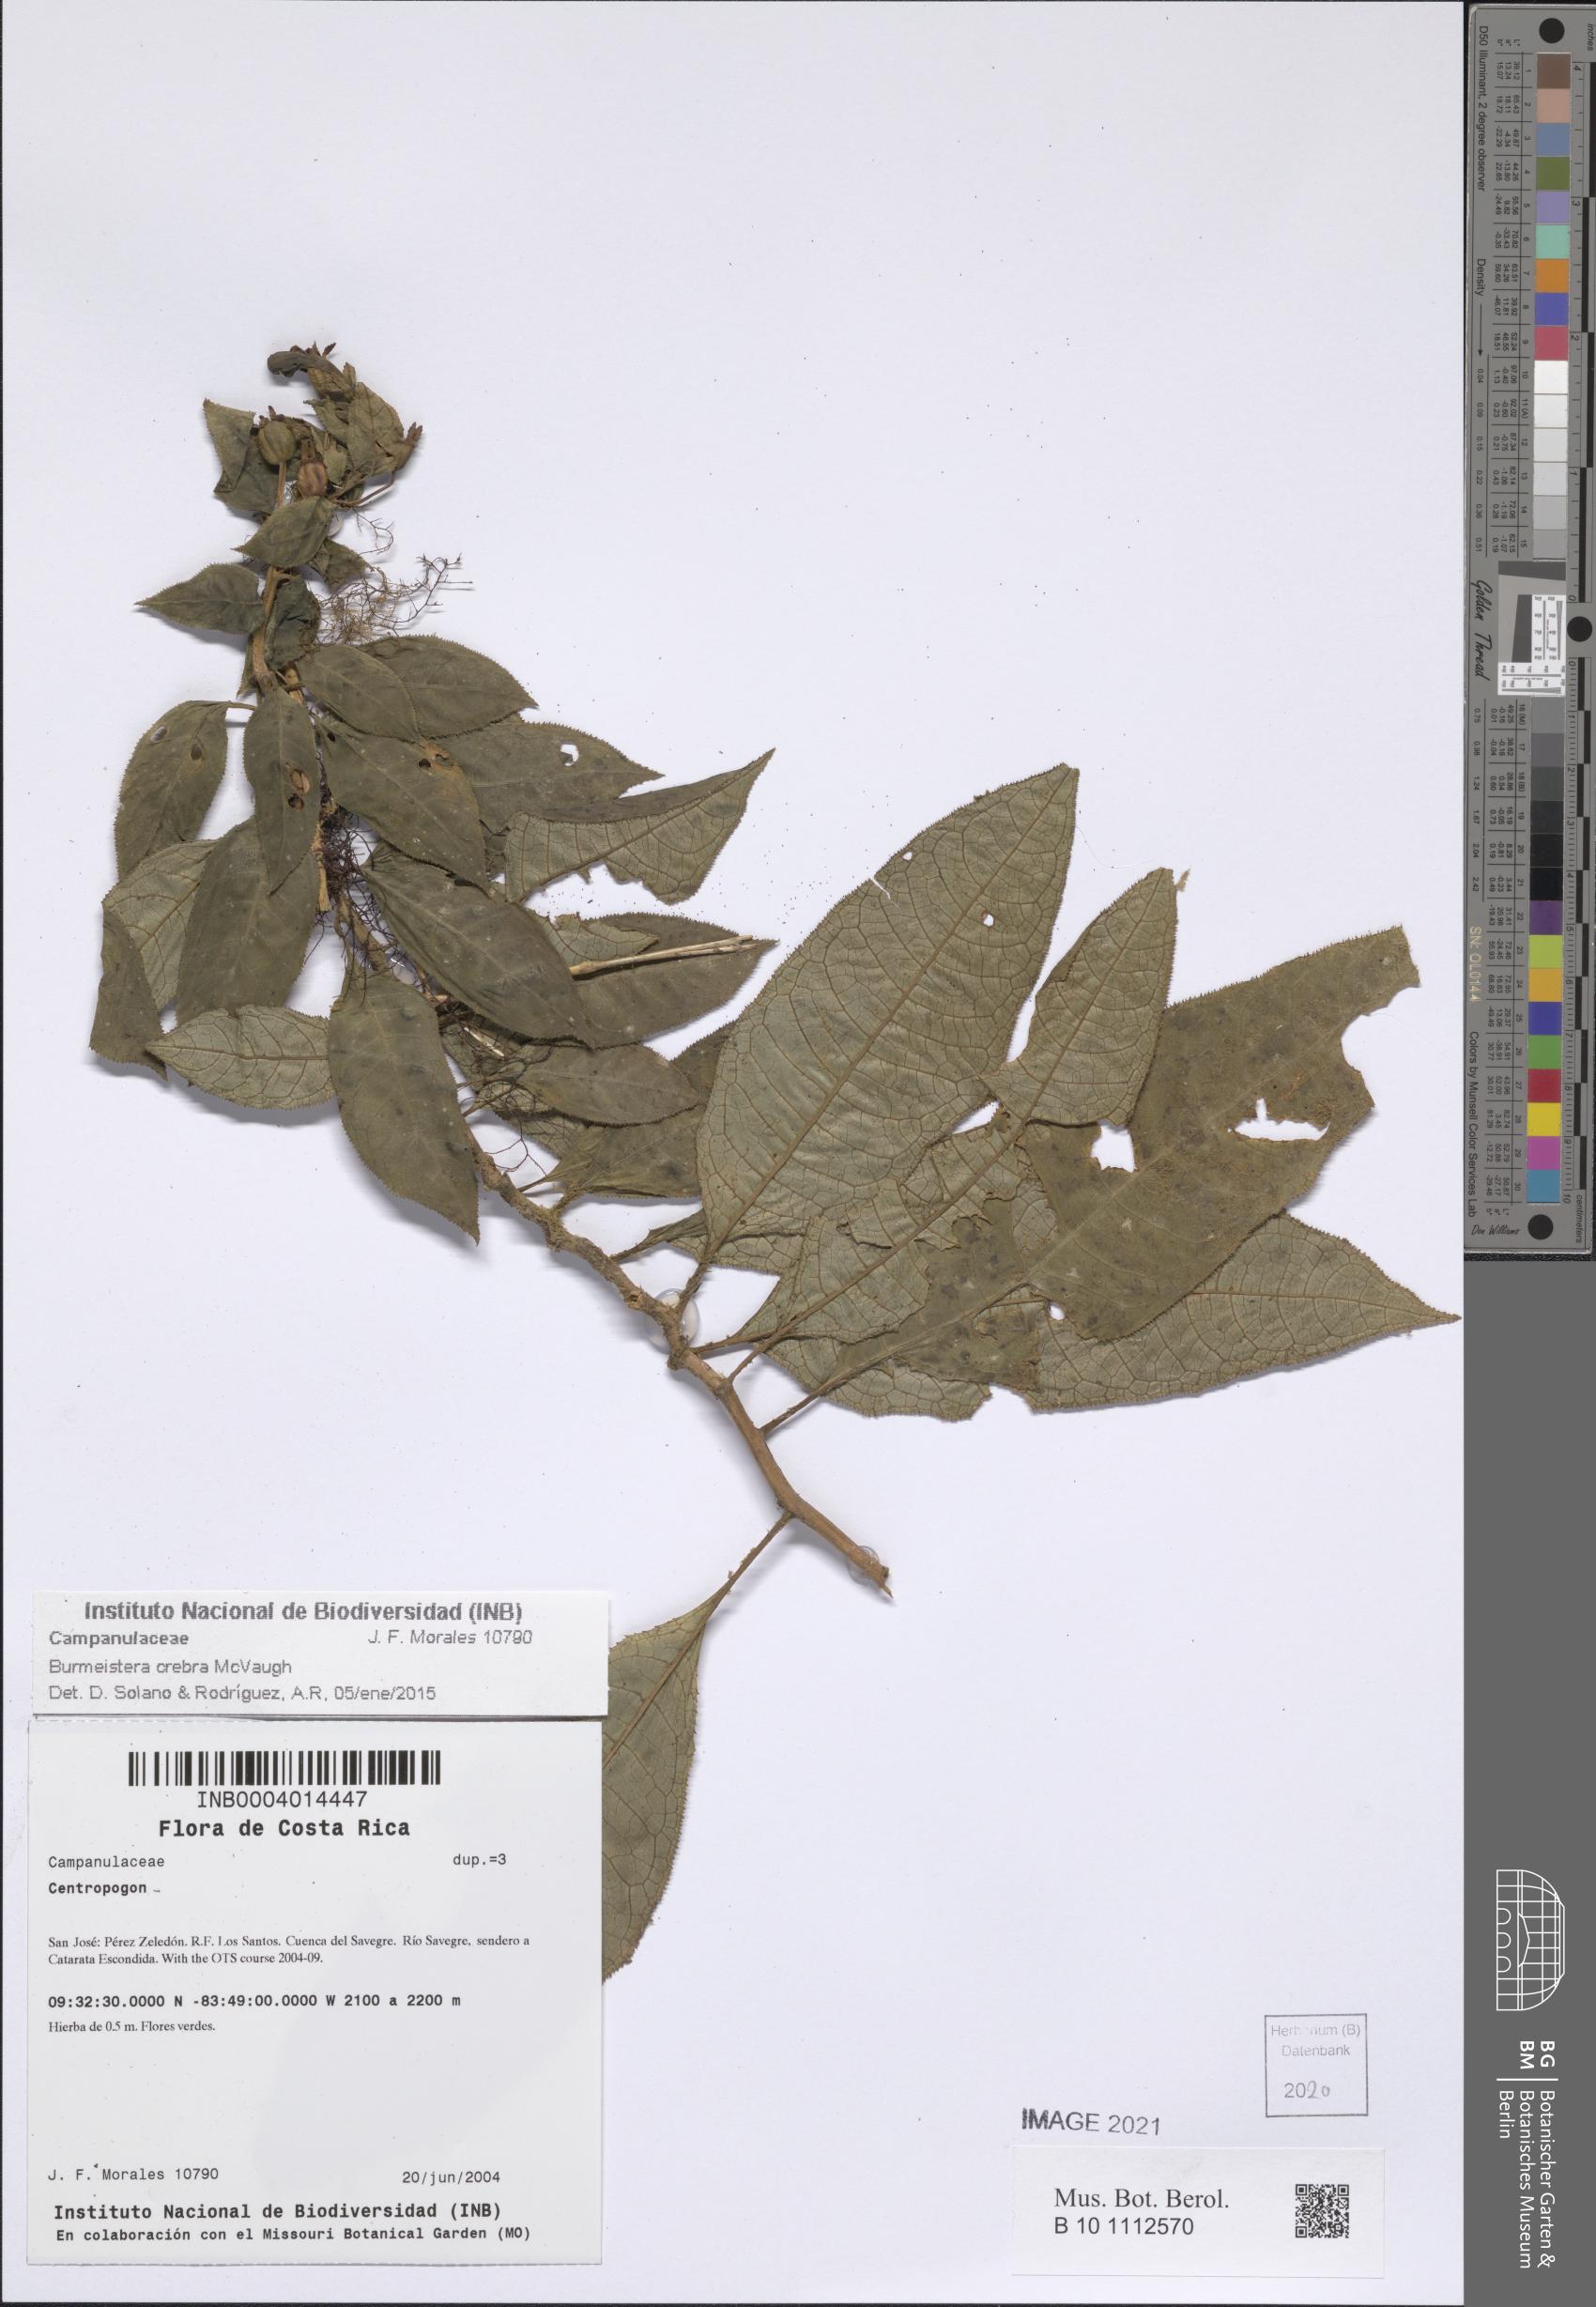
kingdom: Plantae
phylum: Tracheophyta
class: Magnoliopsida
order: Asterales
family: Campanulaceae
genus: Burmeistera
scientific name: Burmeistera crebra
